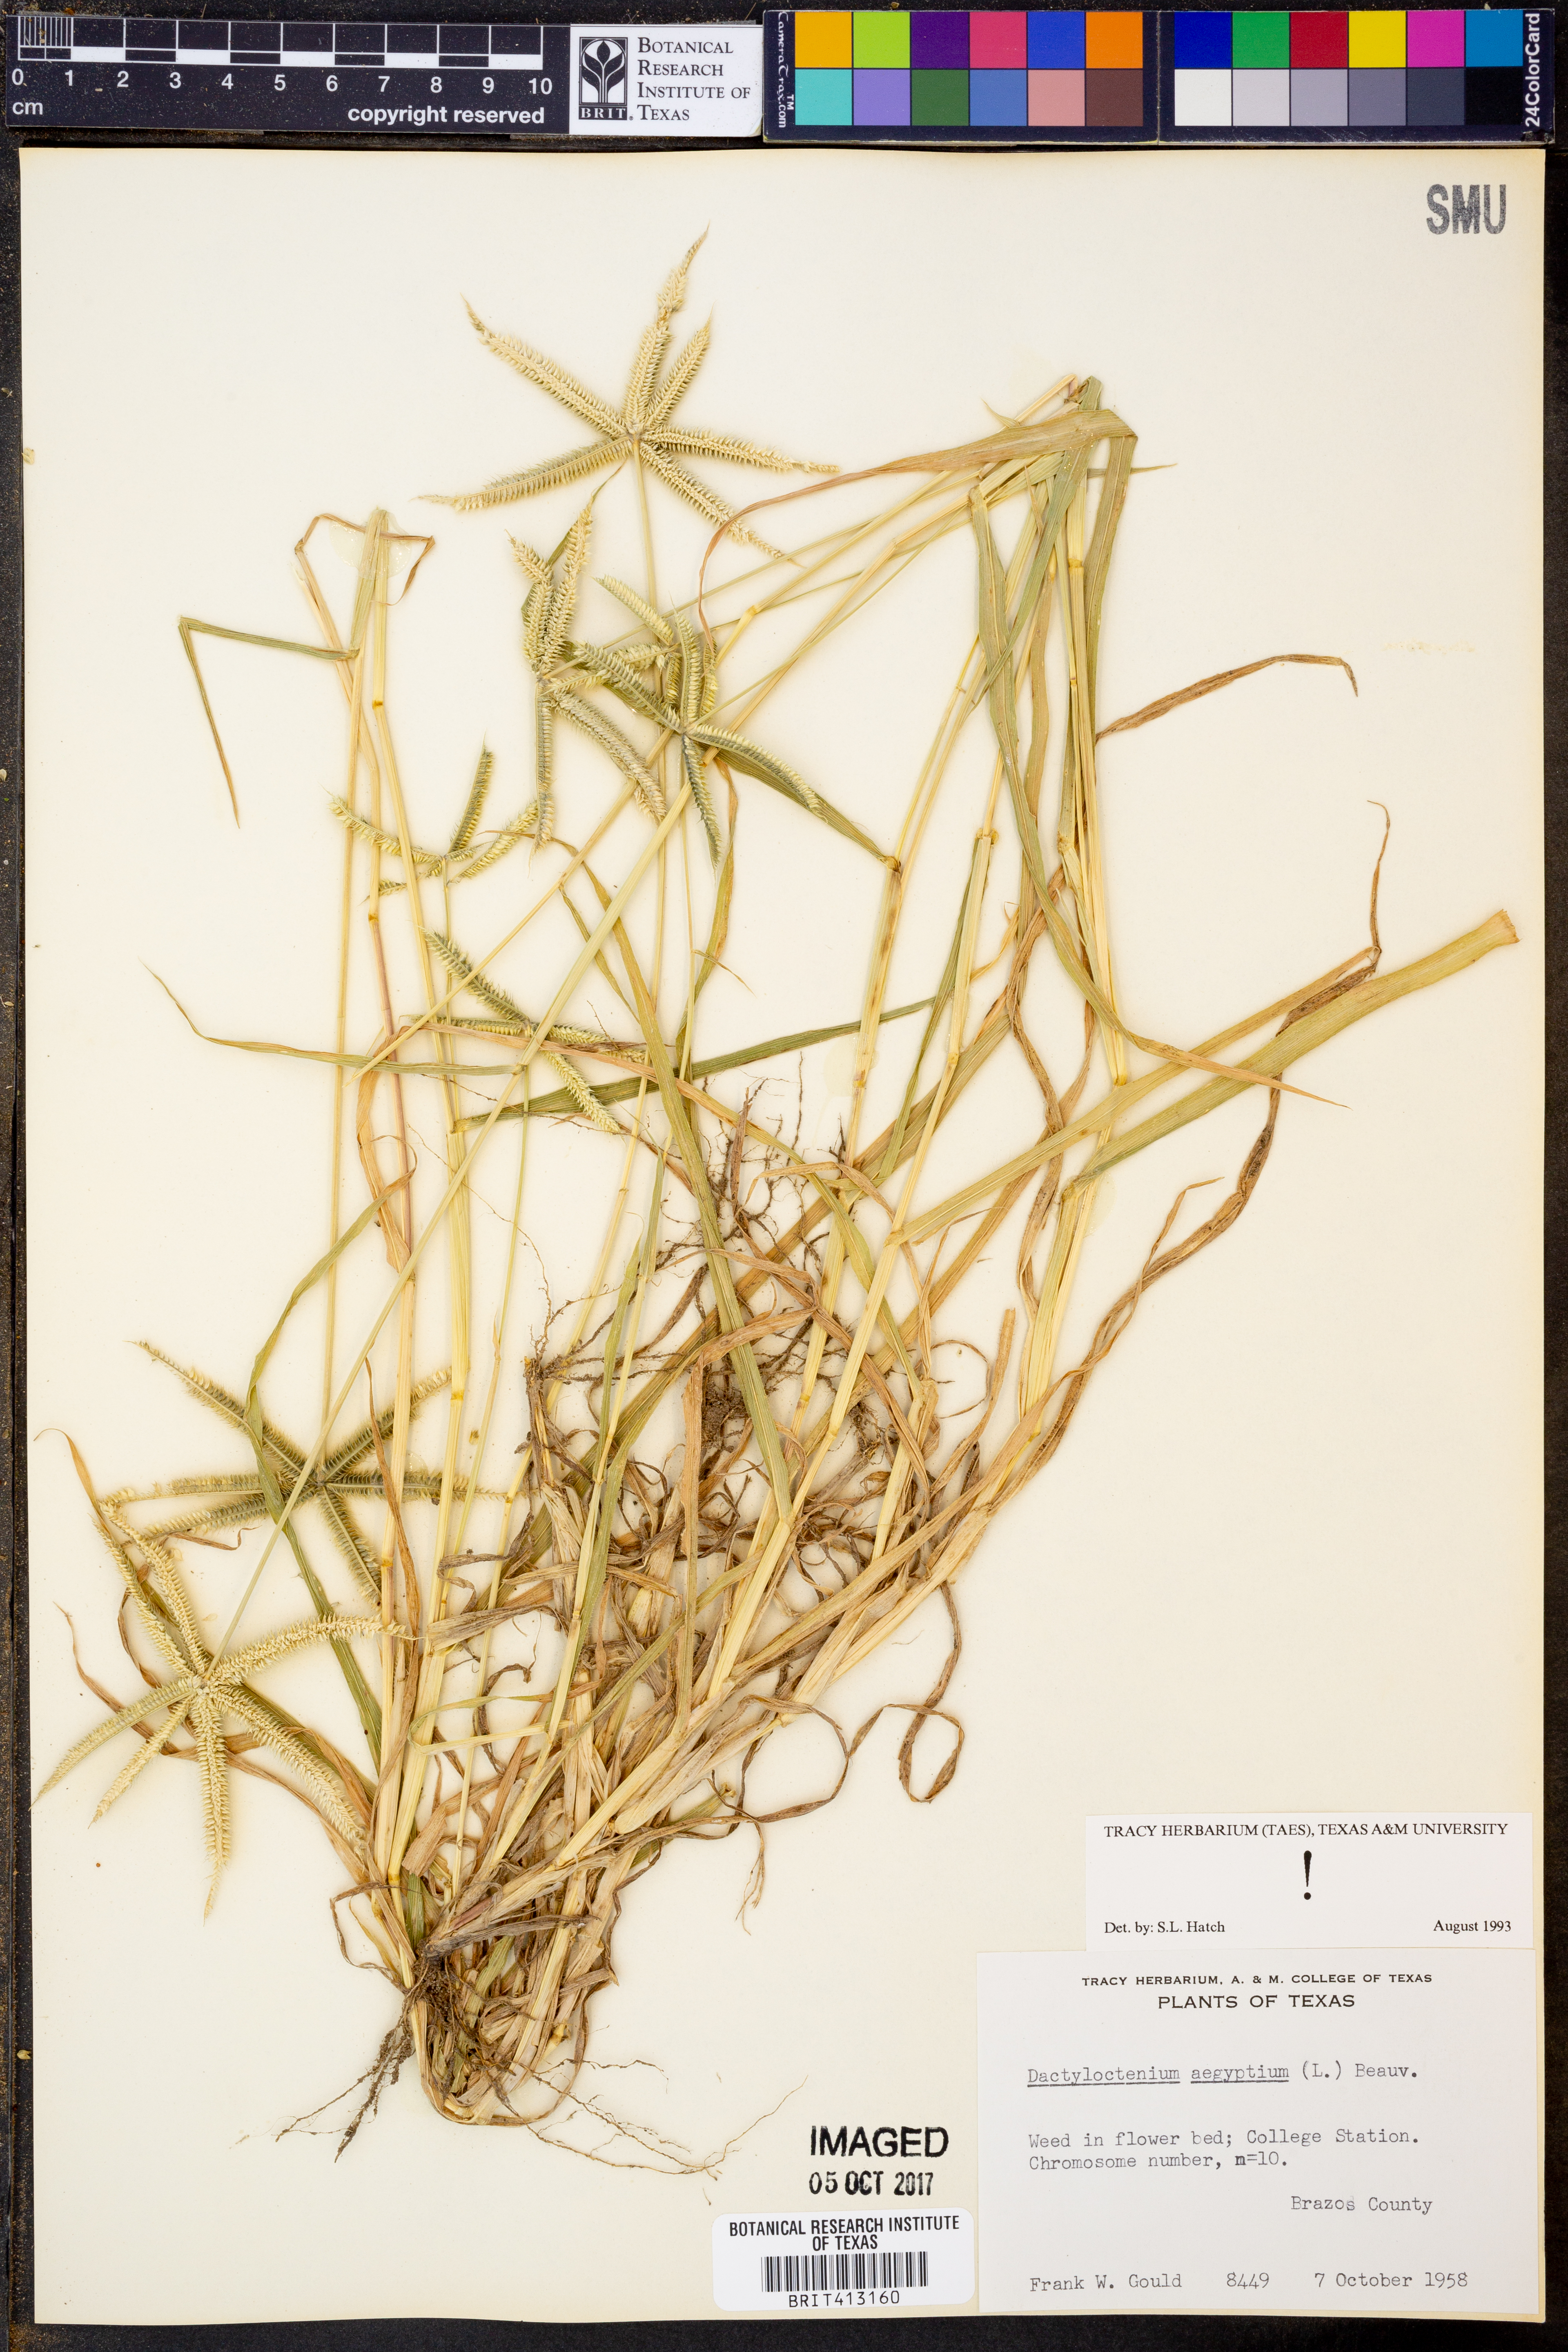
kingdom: Plantae
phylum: Tracheophyta
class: Liliopsida
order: Poales
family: Poaceae
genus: Dactyloctenium
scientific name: Dactyloctenium aegyptium
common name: Egyptian grass
